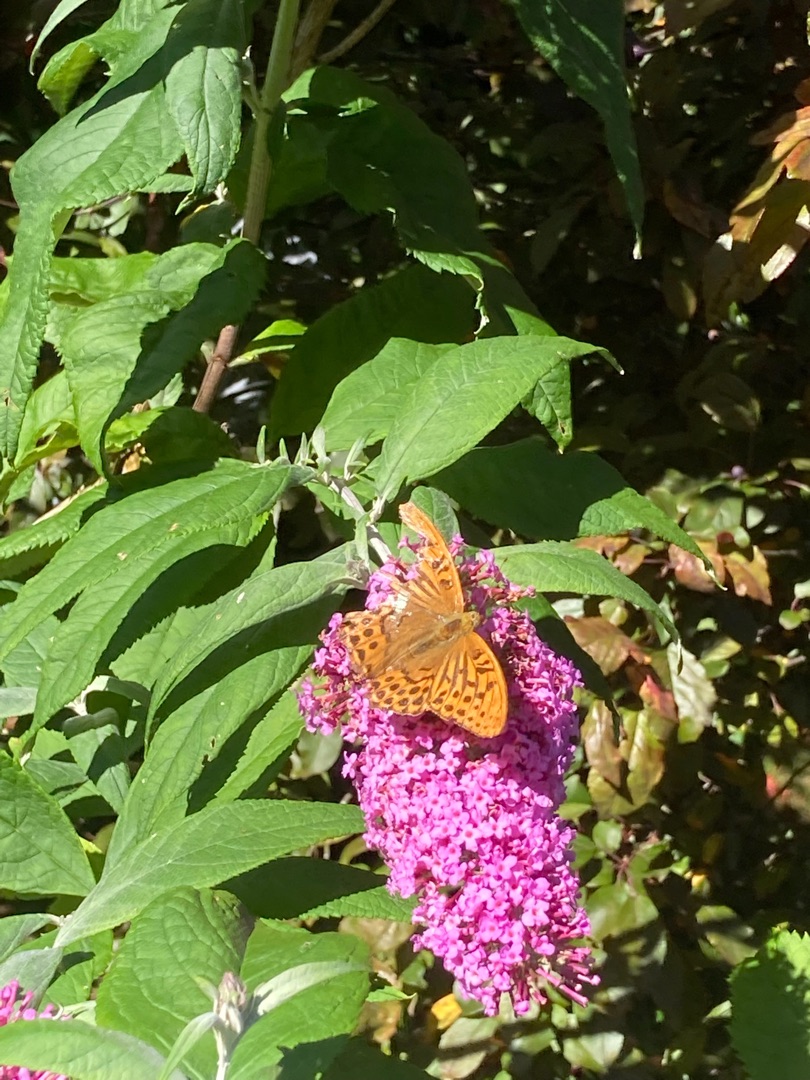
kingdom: Animalia
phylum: Arthropoda
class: Insecta
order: Lepidoptera
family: Nymphalidae
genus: Argynnis
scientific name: Argynnis paphia
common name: Kejserkåbe
